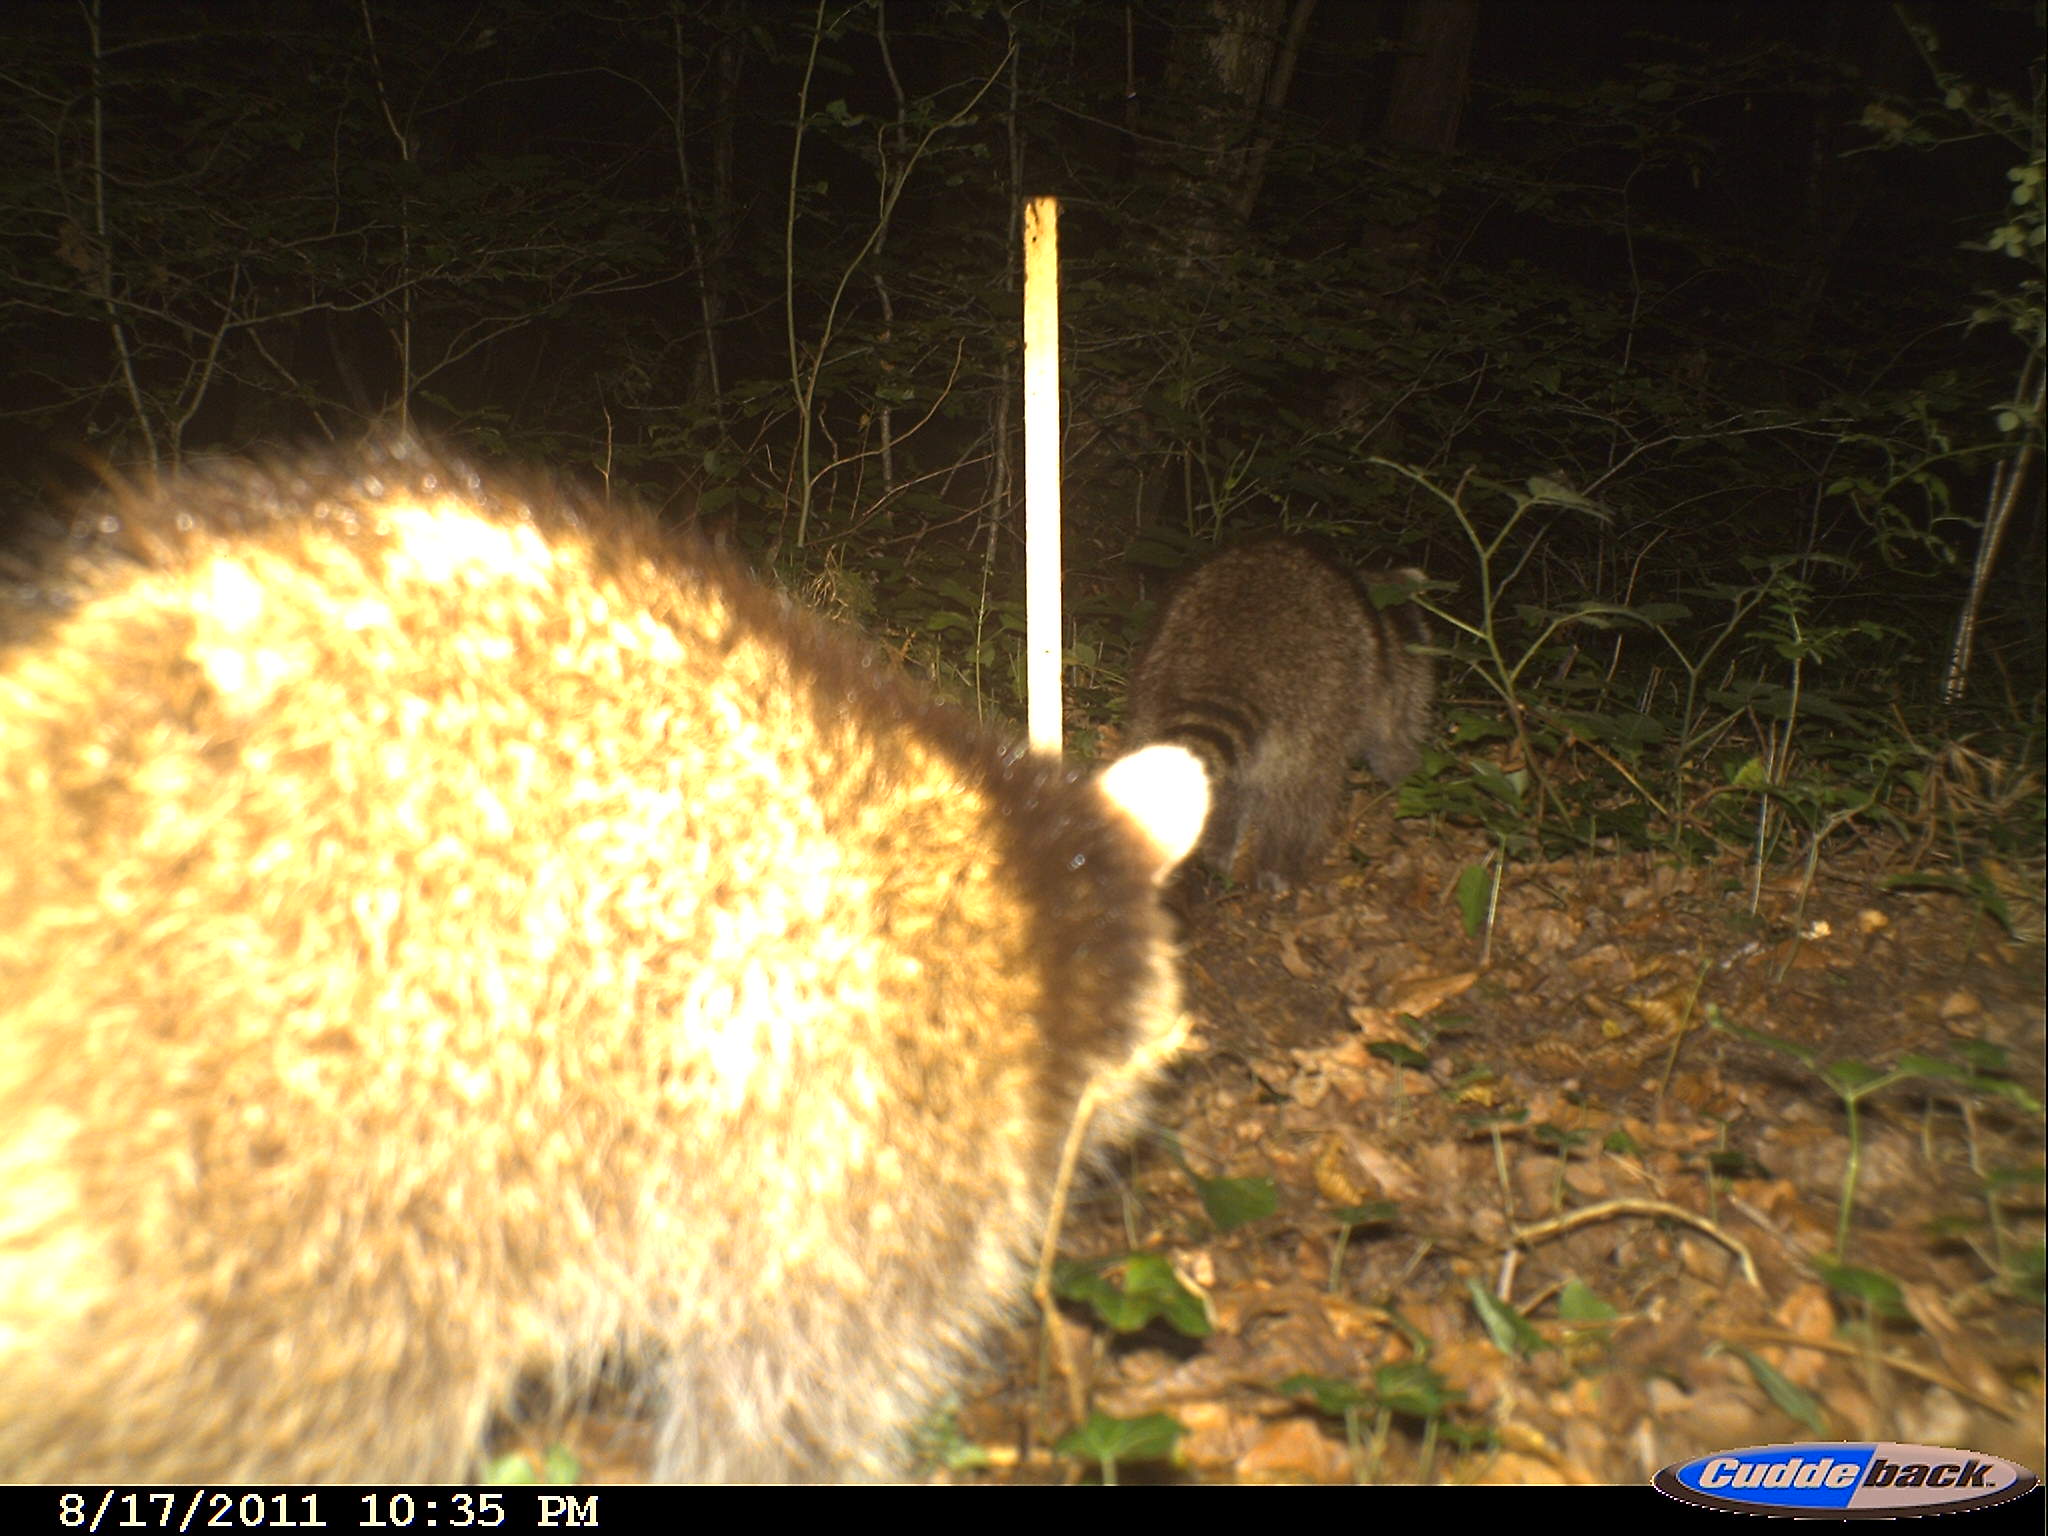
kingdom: Animalia
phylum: Chordata
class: Mammalia
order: Carnivora
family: Procyonidae
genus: Procyon
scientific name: Procyon lotor
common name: Raccoon
